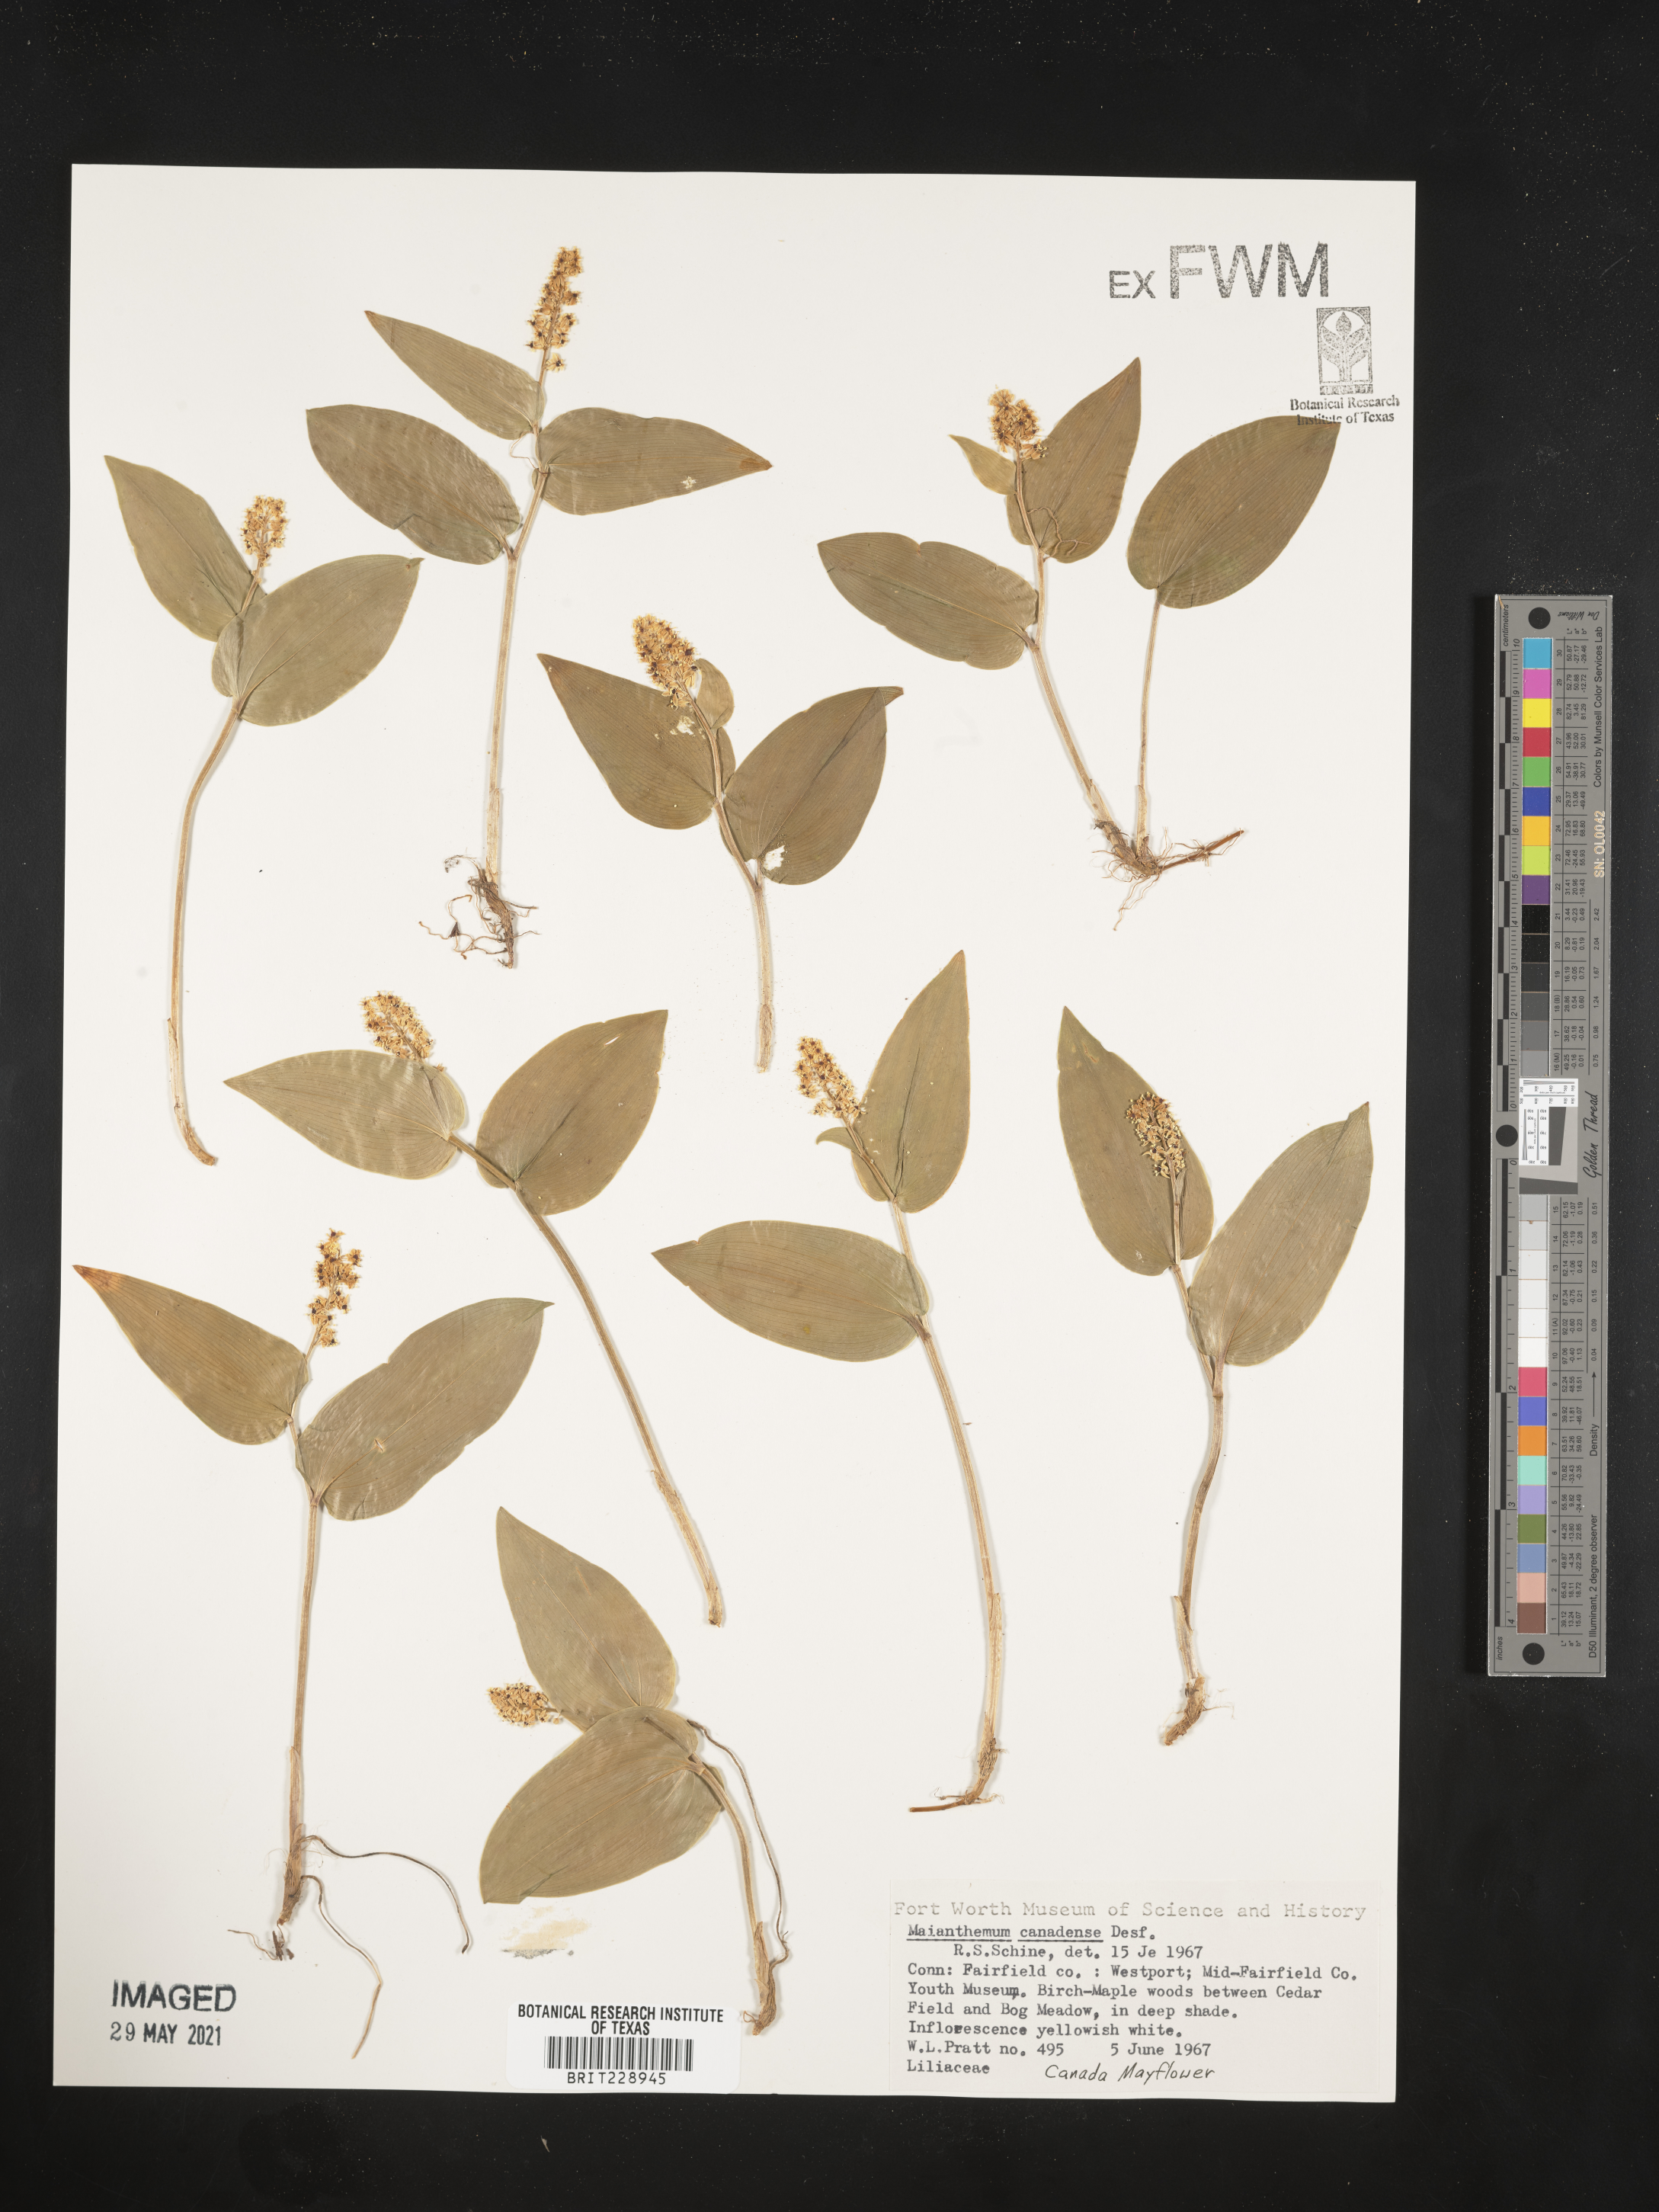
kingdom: Plantae
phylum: Tracheophyta
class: Liliopsida
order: Asparagales
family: Asparagaceae
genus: Maianthemum
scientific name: Maianthemum canadense
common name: False lily-of-the-valley
